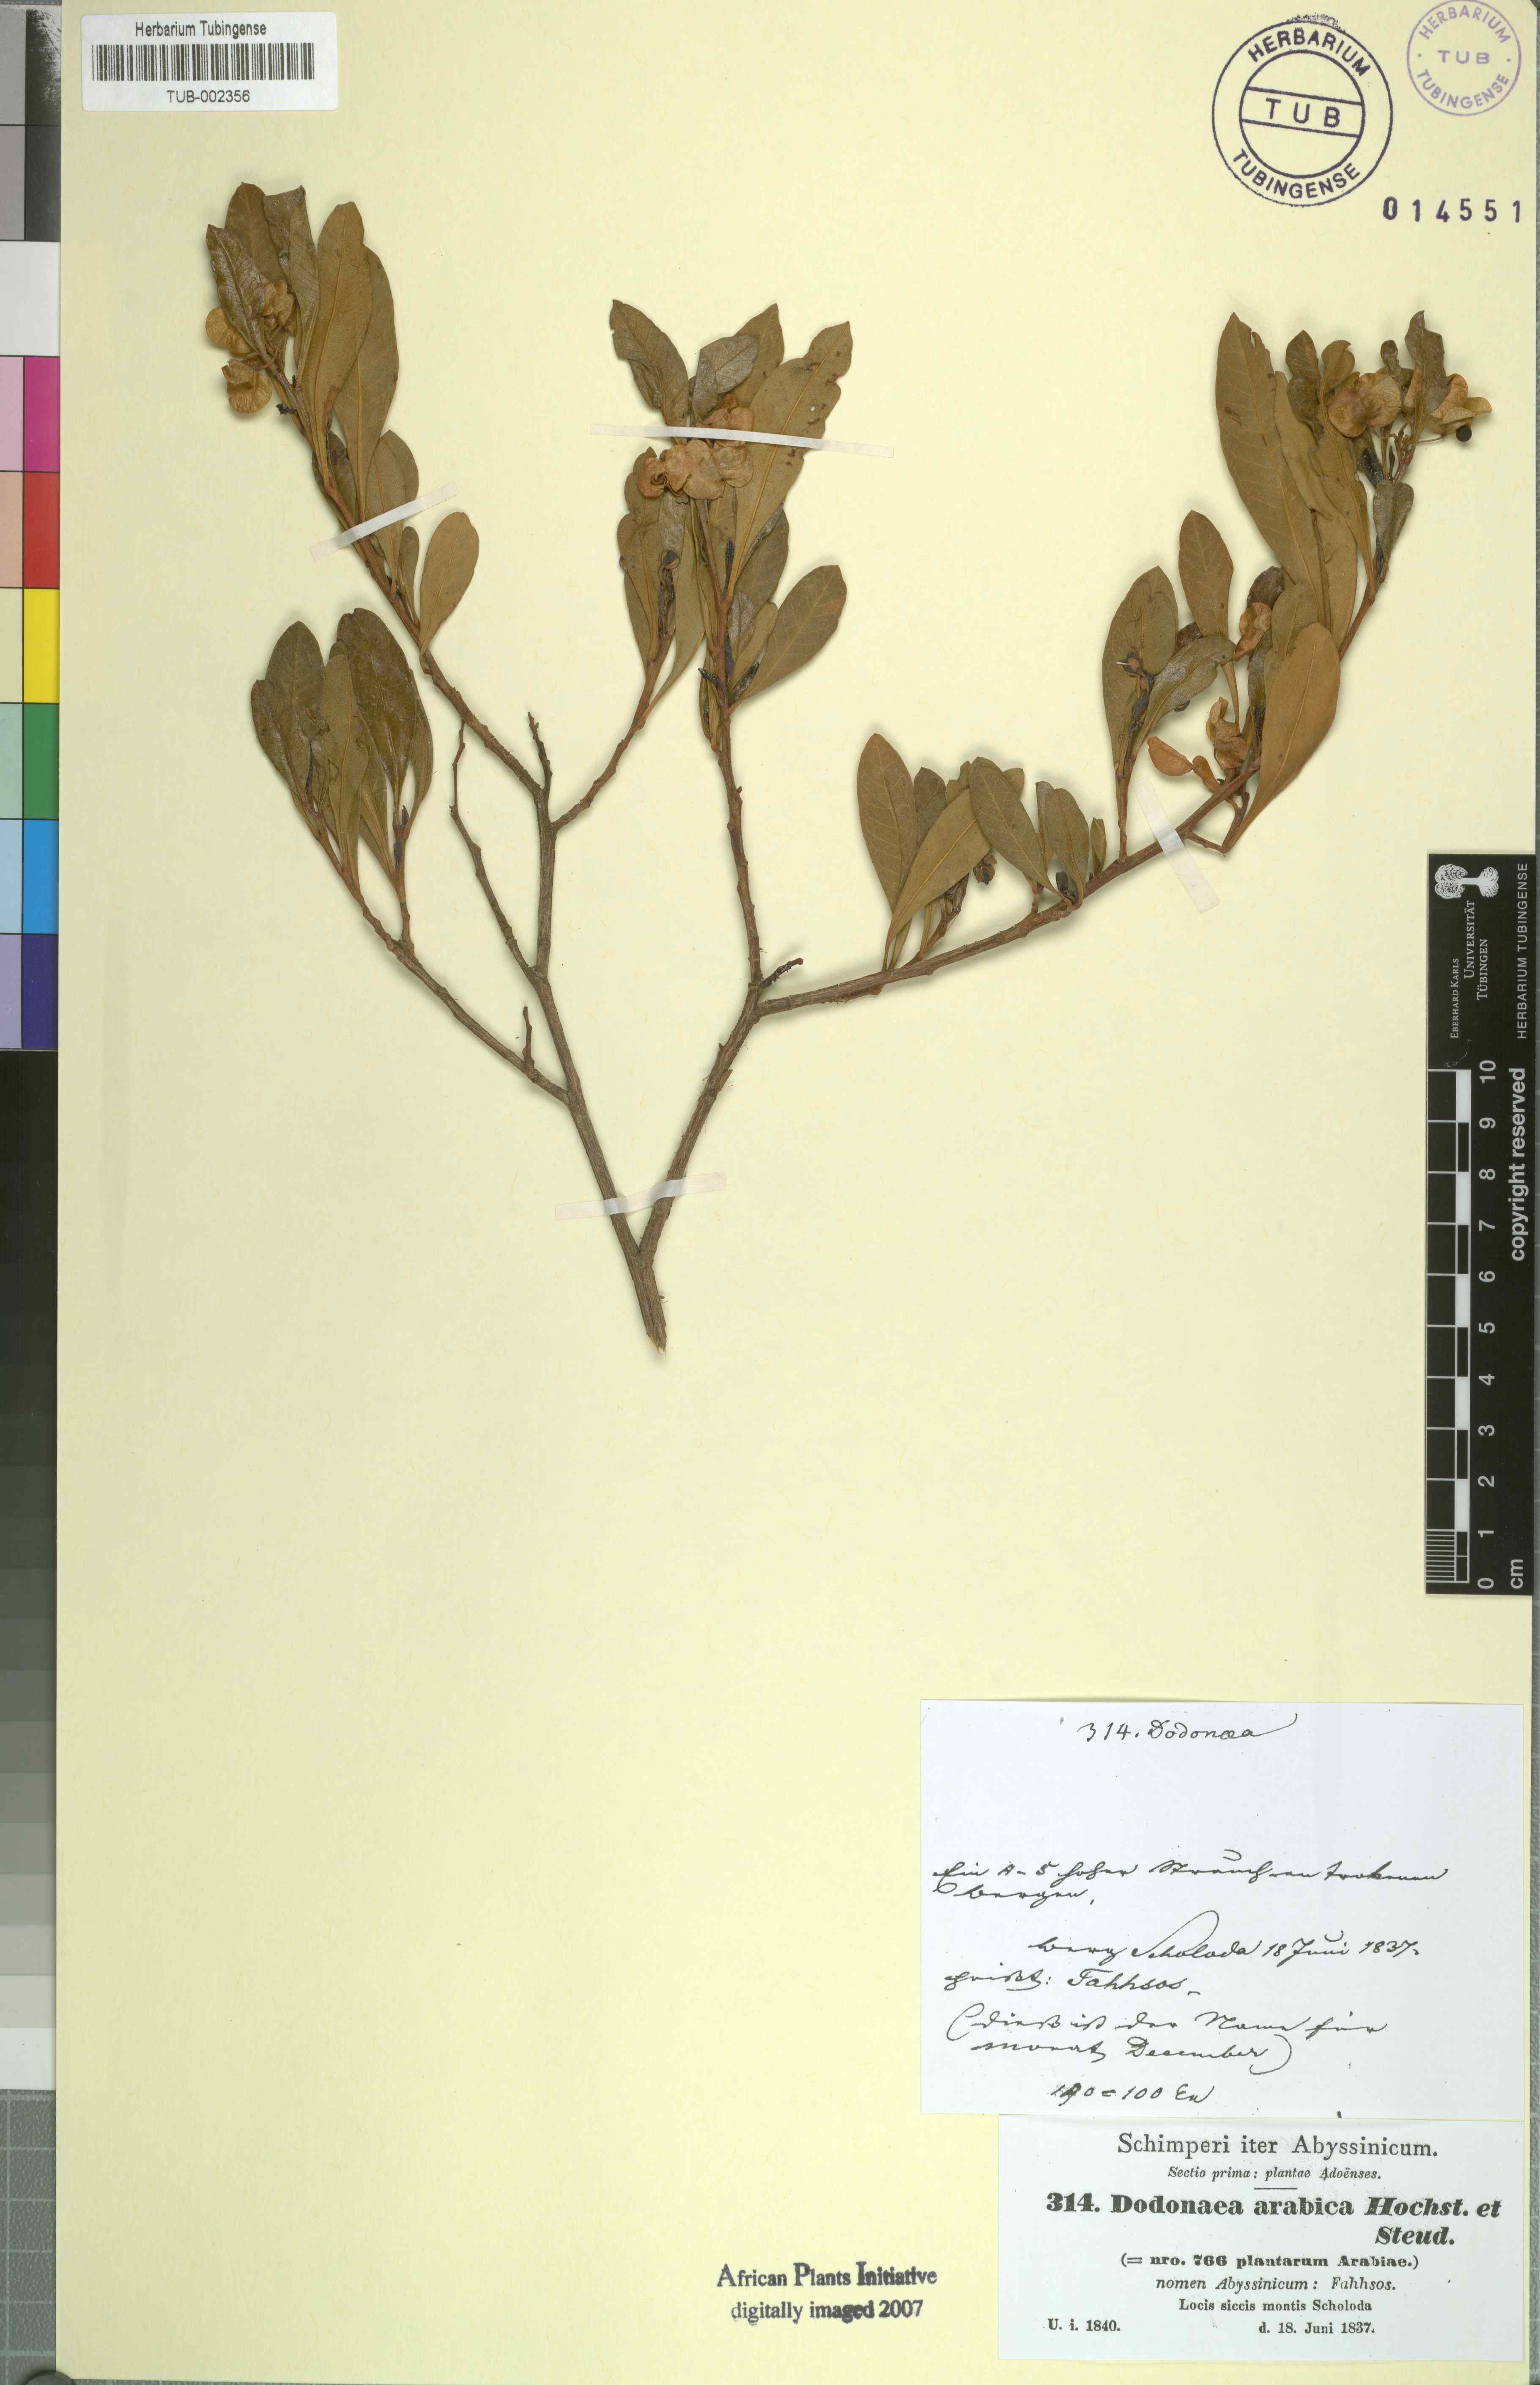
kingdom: Plantae
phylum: Tracheophyta
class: Magnoliopsida
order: Sapindales
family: Sapindaceae
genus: Dodonaea
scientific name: Dodonaea viscosa
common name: Hopbush
